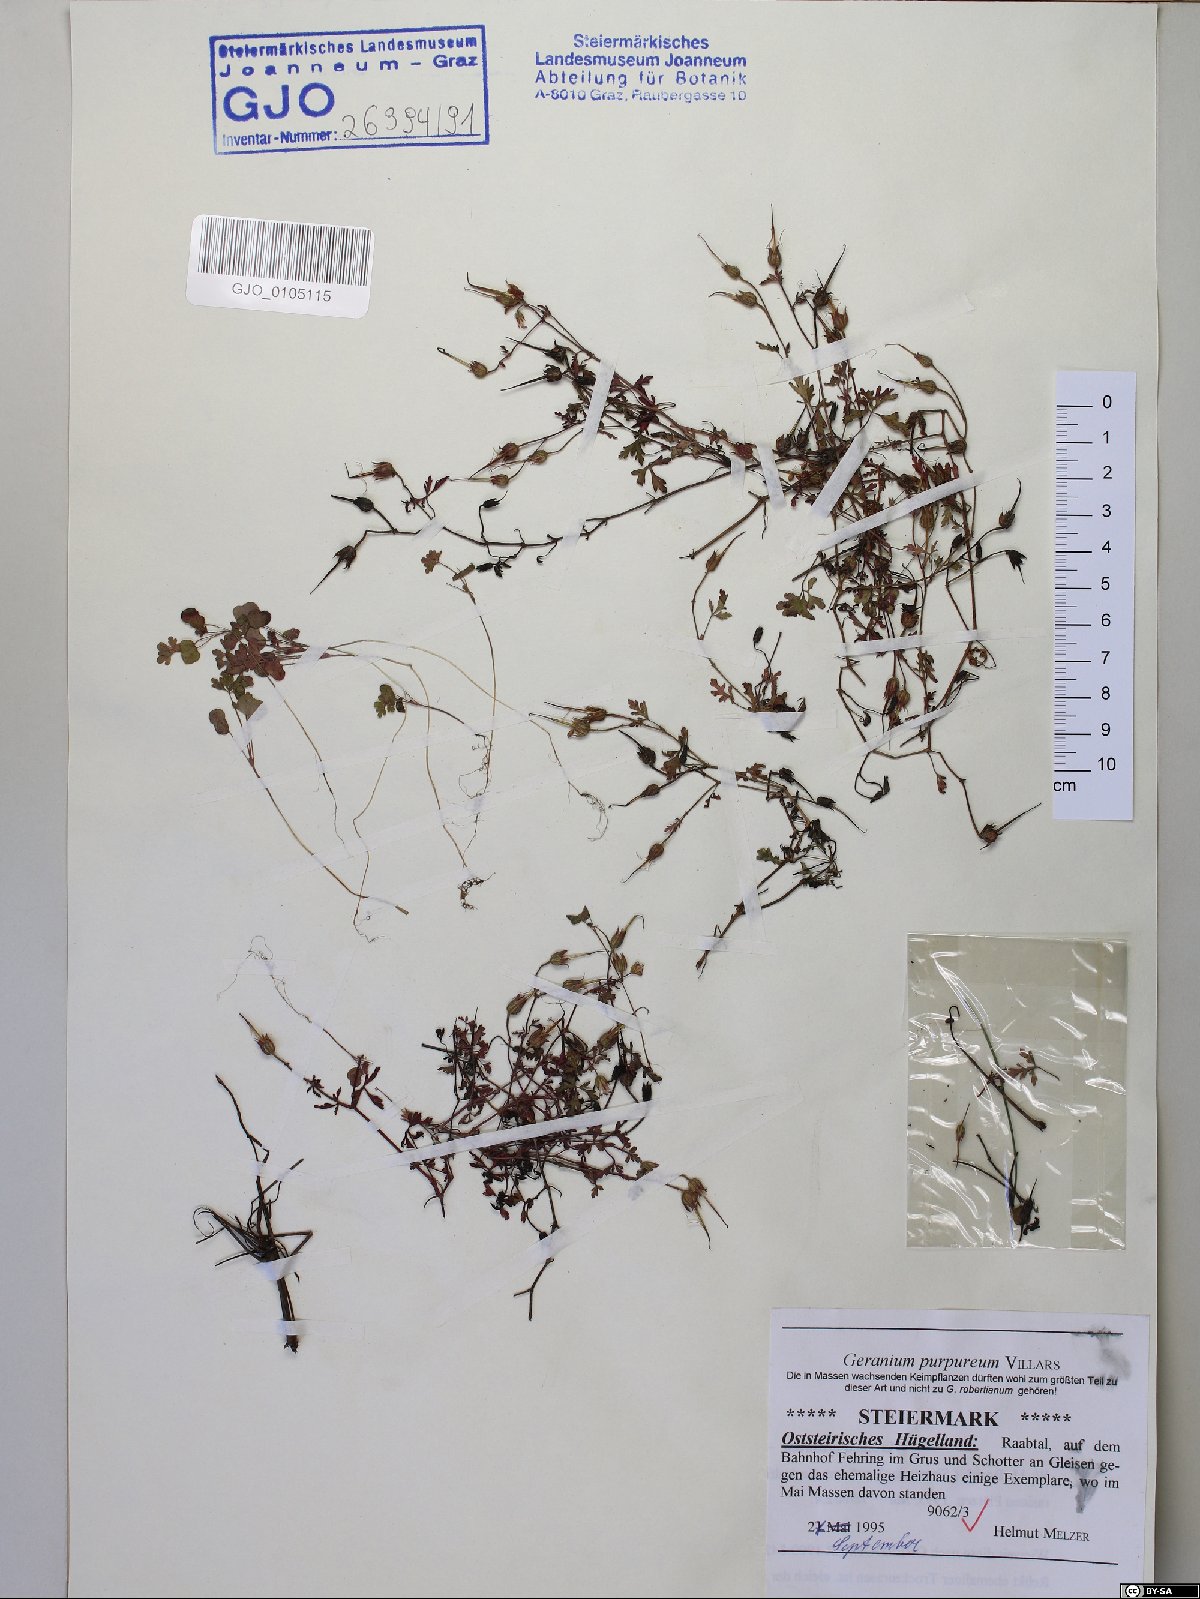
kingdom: Plantae
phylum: Tracheophyta
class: Magnoliopsida
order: Geraniales
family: Geraniaceae
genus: Geranium
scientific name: Geranium purpureum
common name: Little-robin
